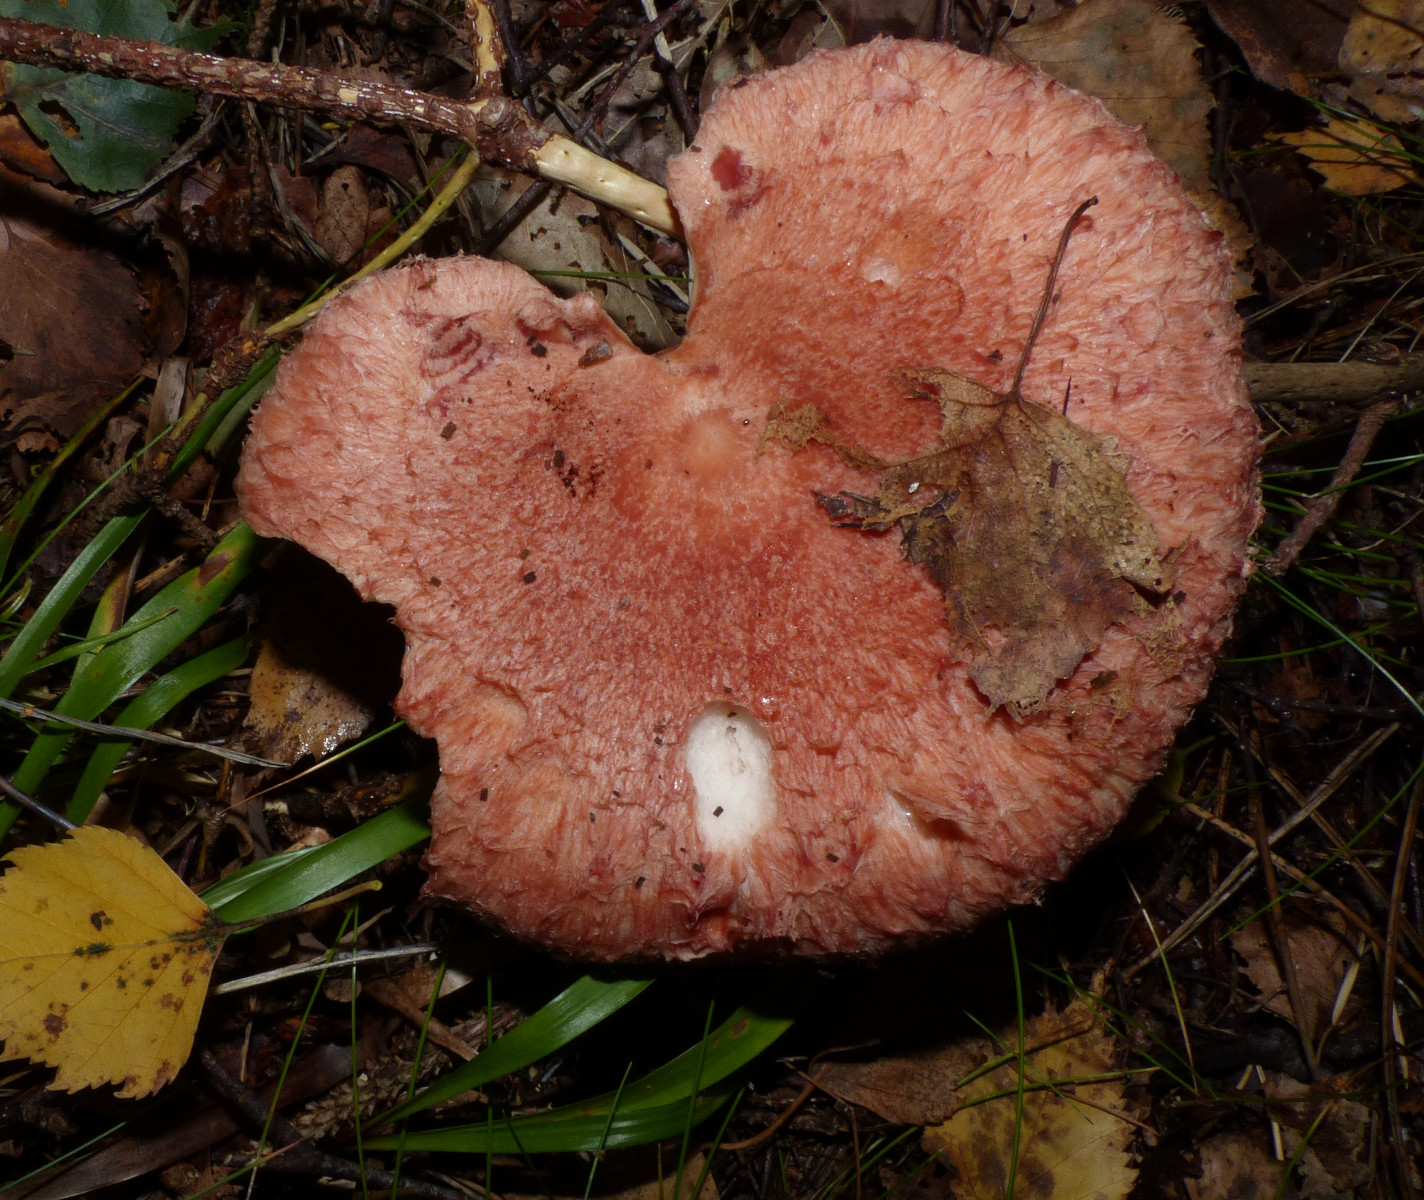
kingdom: Fungi
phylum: Basidiomycota
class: Agaricomycetes
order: Russulales
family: Russulaceae
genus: Lactarius
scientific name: Lactarius torminosus
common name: skægget mælkehat
